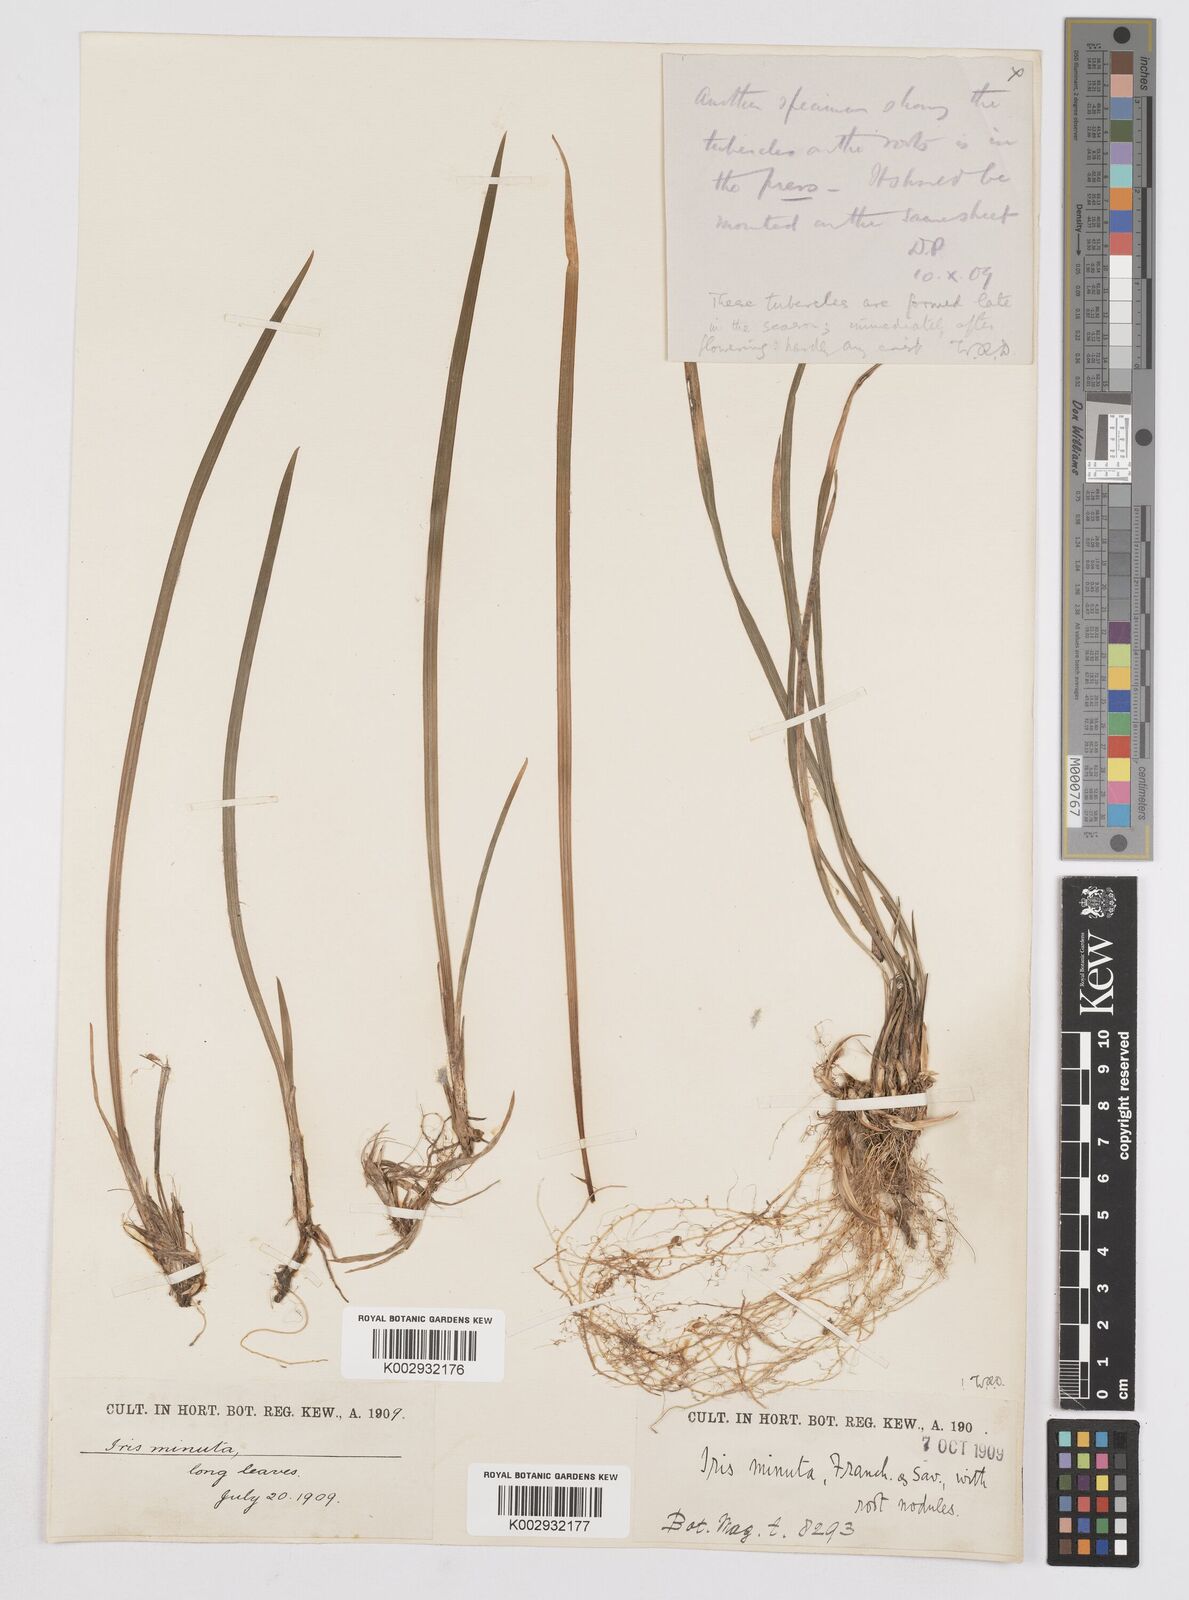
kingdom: Plantae
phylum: Tracheophyta
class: Liliopsida
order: Asparagales
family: Iridaceae
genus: Iris
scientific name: Iris minutoaurea
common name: Small yellow-flower iris
